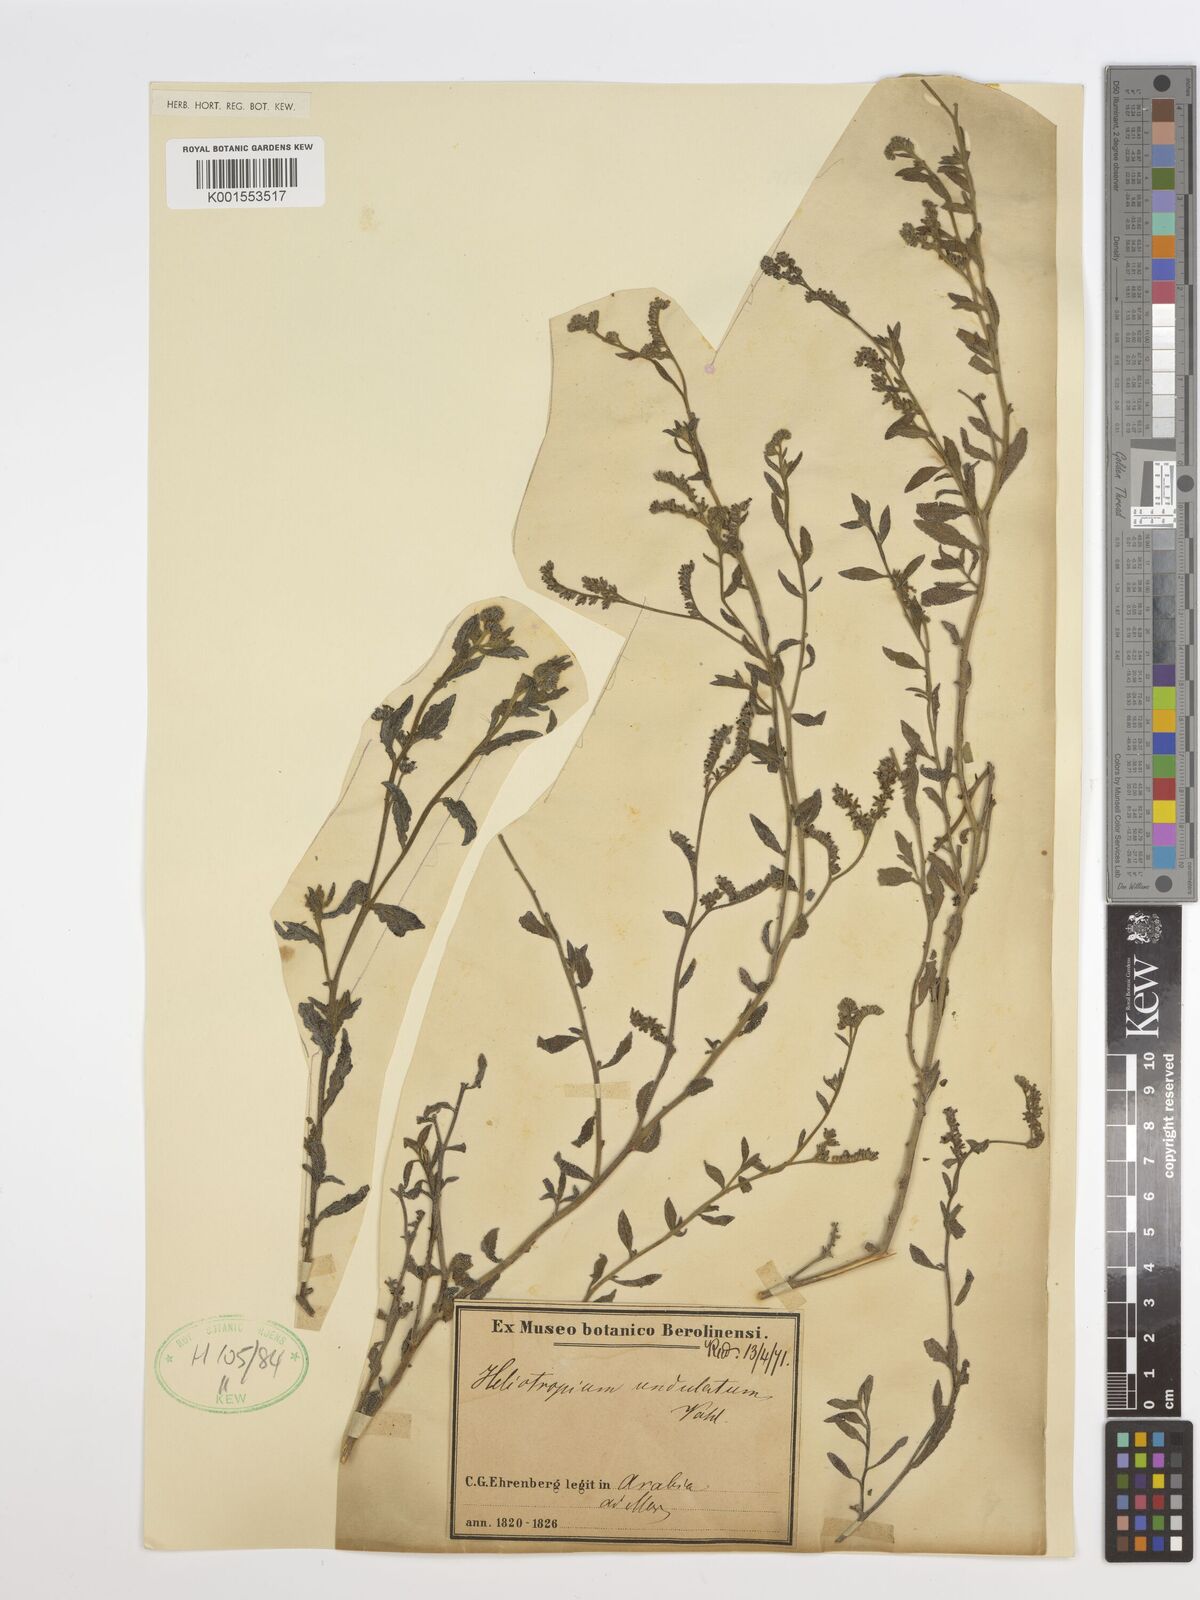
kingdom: Plantae
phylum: Tracheophyta
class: Magnoliopsida
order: Boraginales
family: Heliotropiaceae
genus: Heliotropium
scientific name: Heliotropium bacciferum
